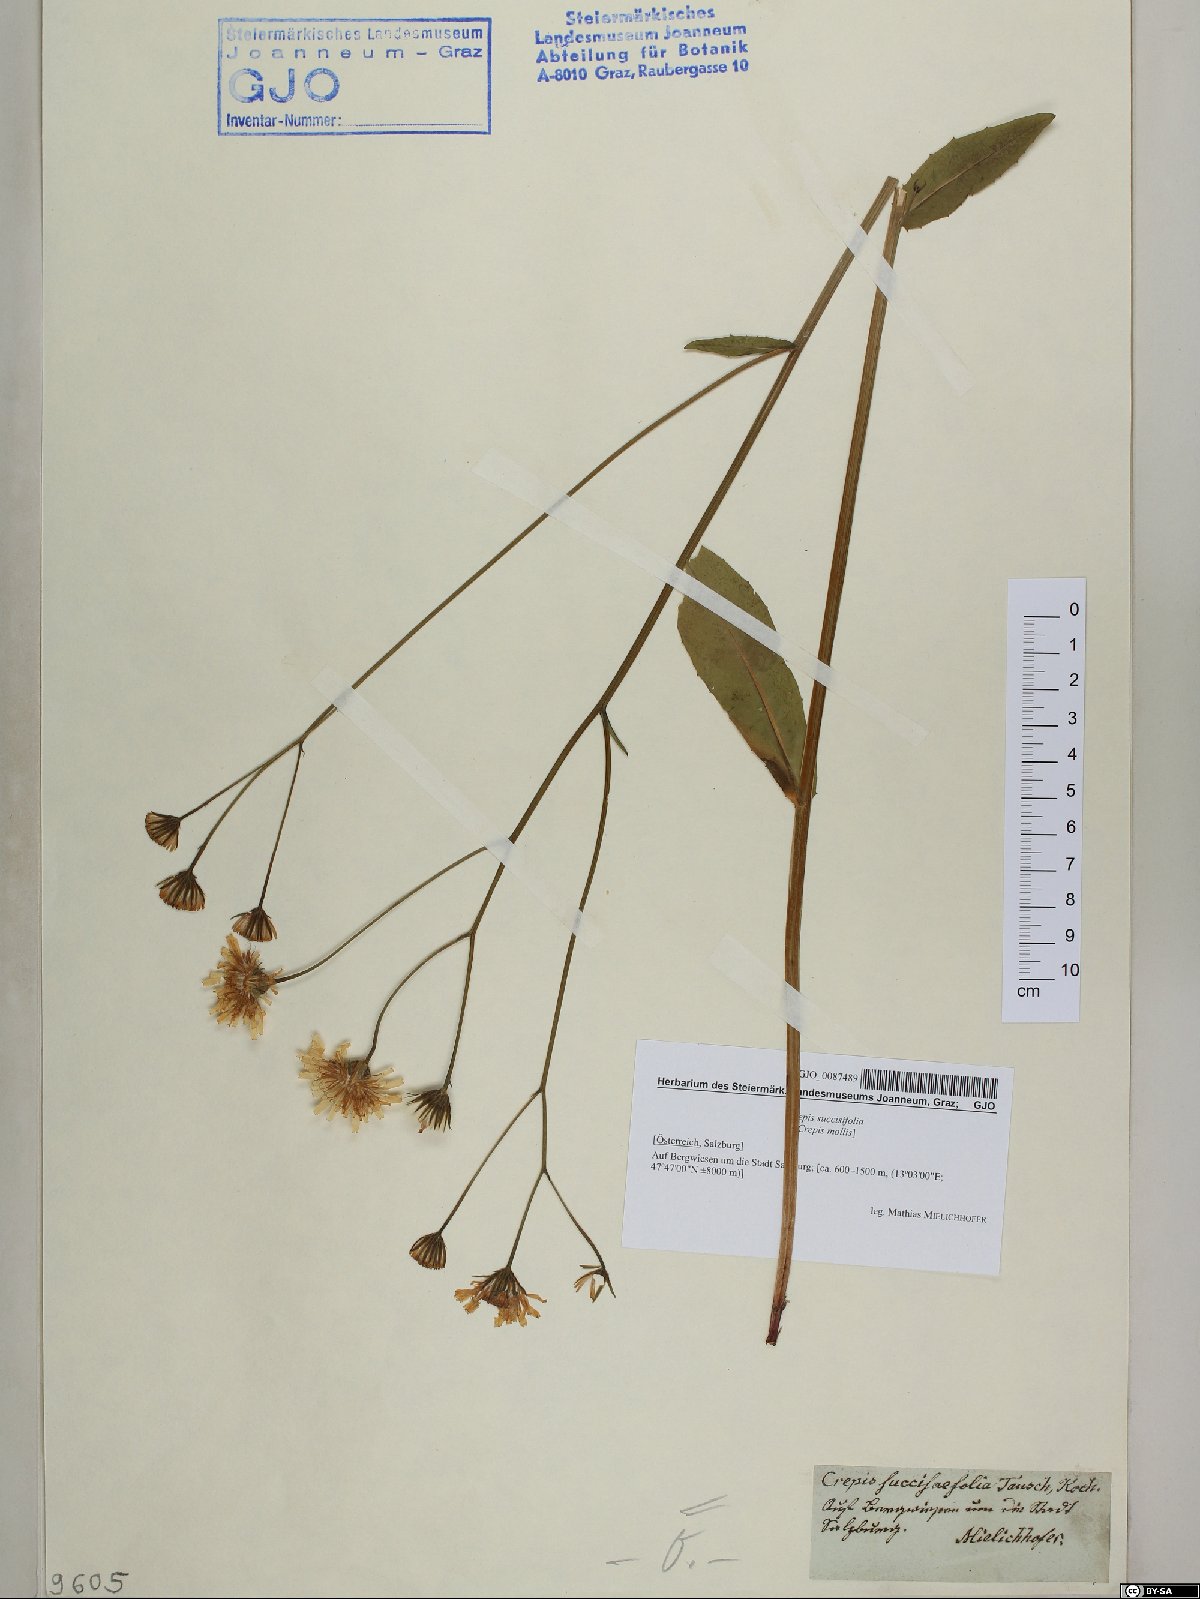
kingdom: Plantae
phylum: Tracheophyta
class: Magnoliopsida
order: Asterales
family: Asteraceae
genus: Crepis
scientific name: Crepis mollis
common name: Northern hawk's-beard
